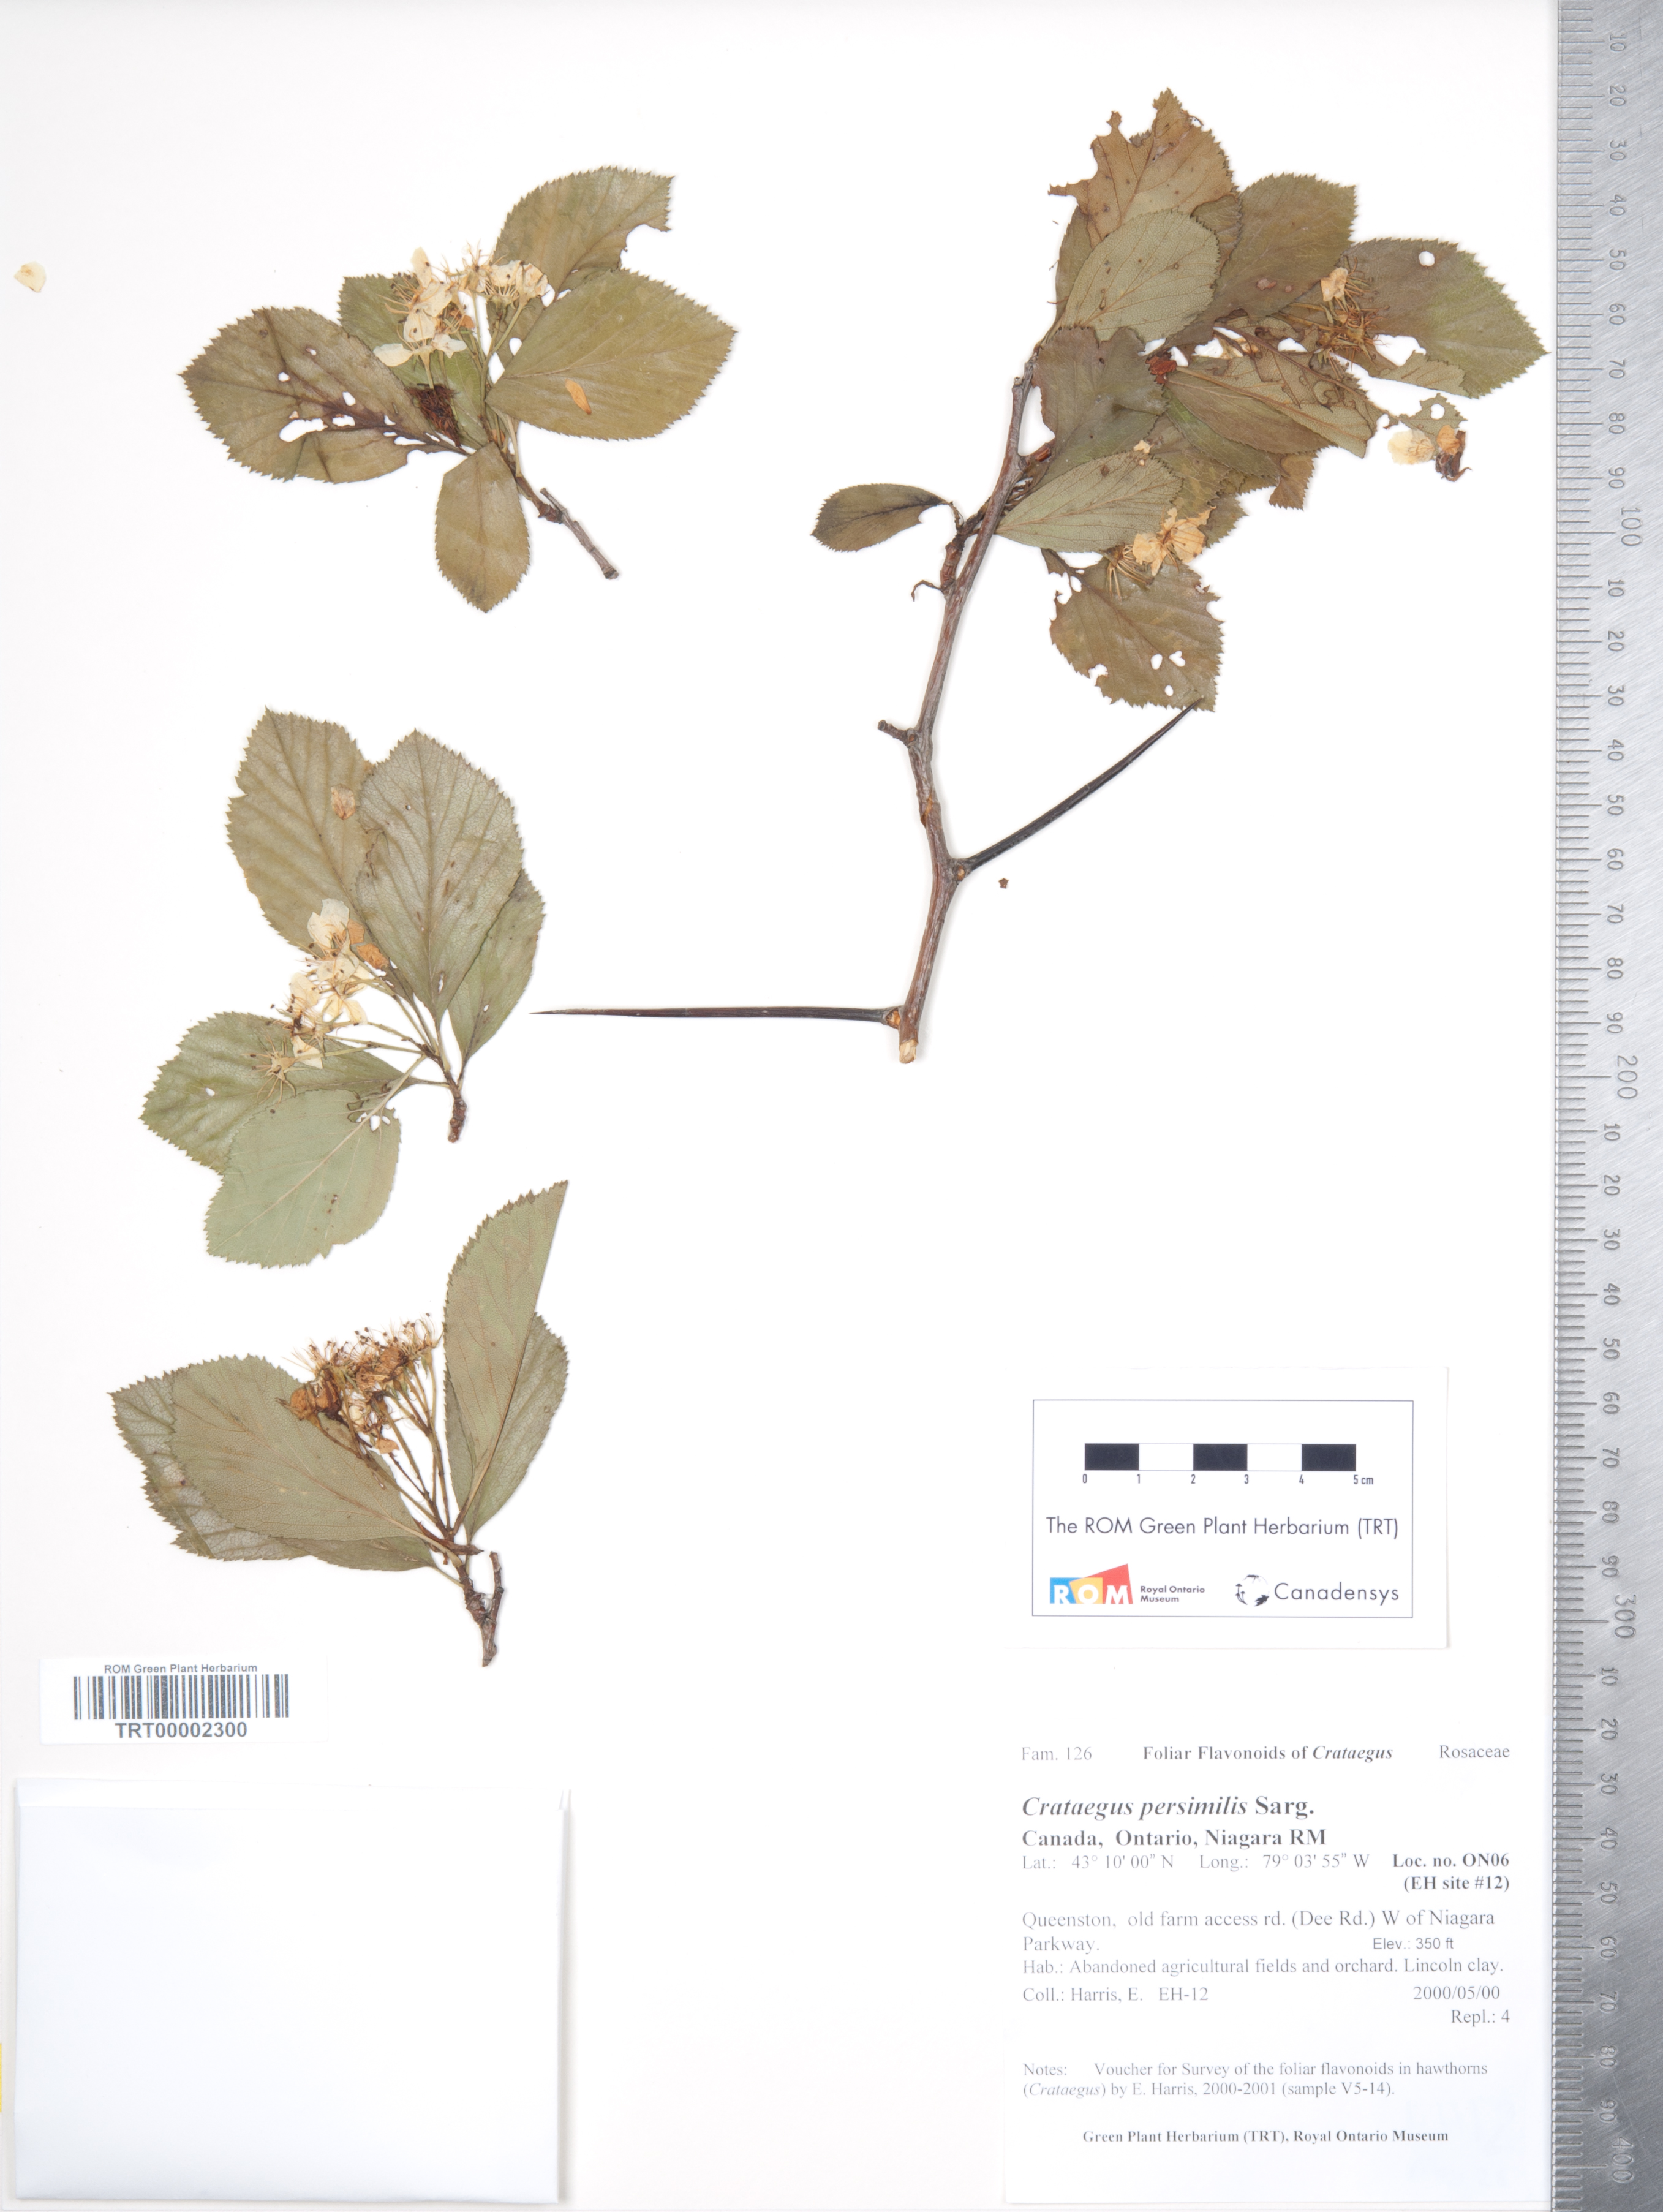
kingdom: Plantae
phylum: Tracheophyta
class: Magnoliopsida
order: Rosales
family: Rosaceae
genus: Crataegus
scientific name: Crataegus persimilis
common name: Broad-leaved cockspurthorn
